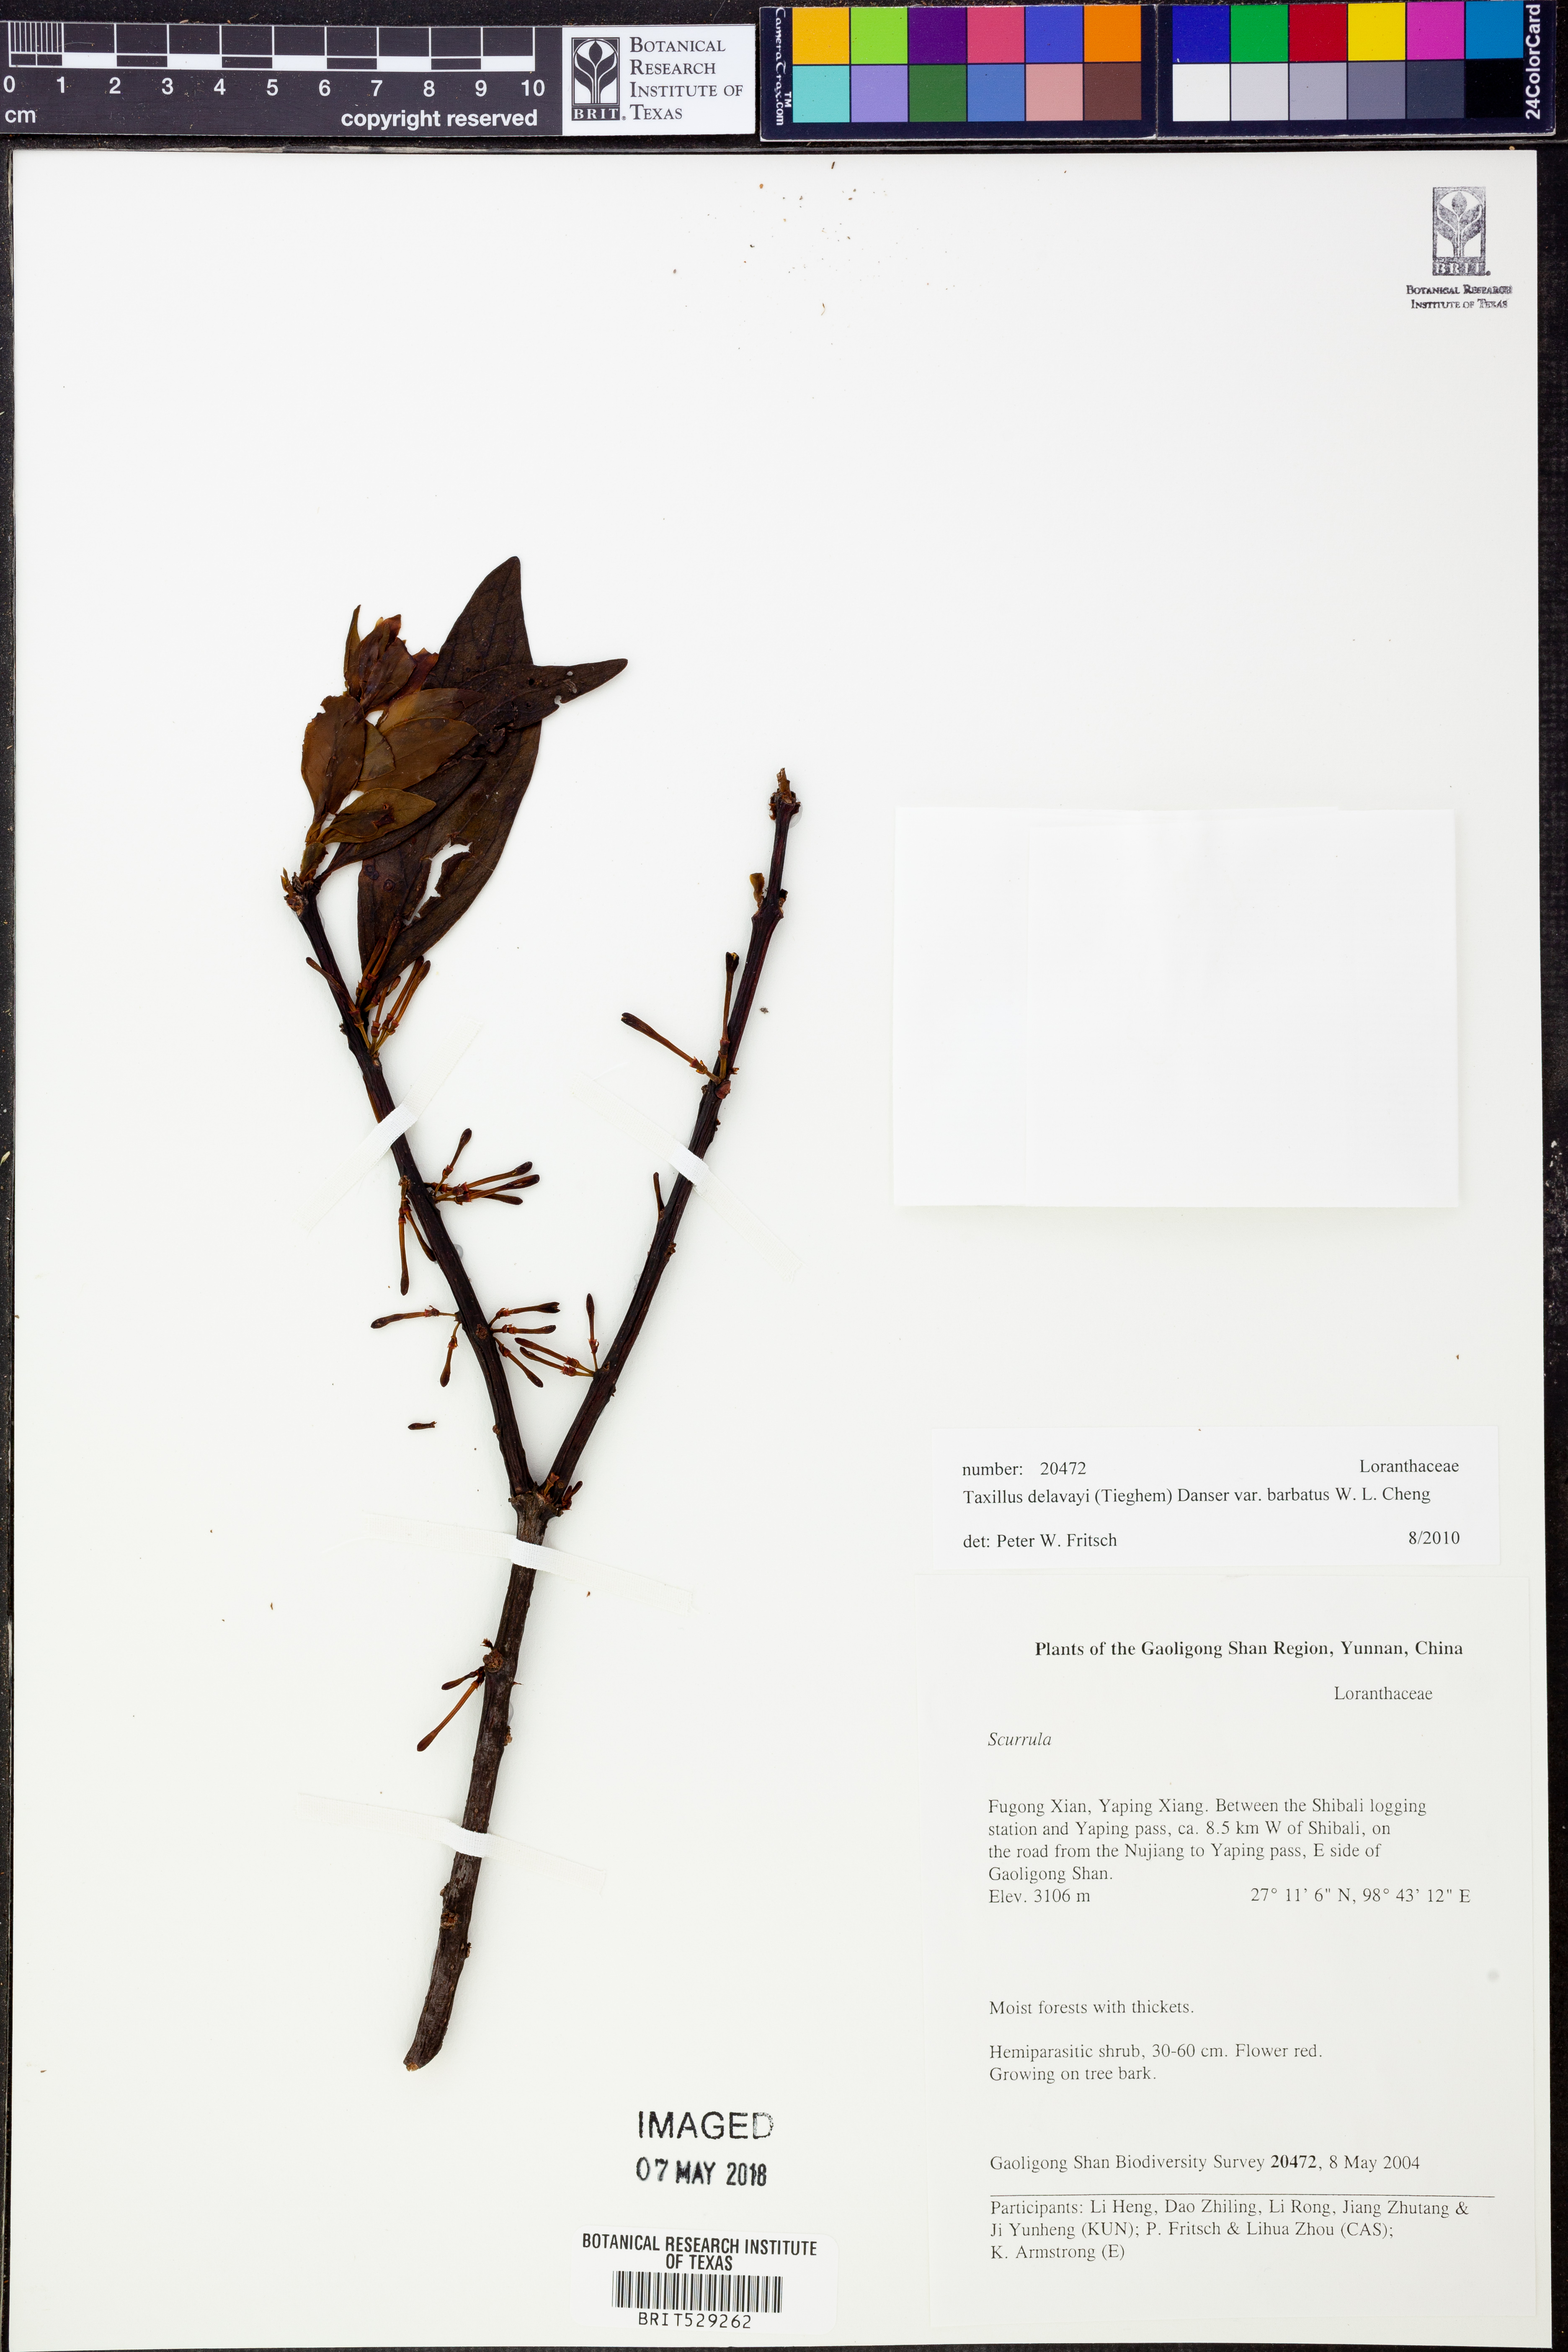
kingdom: Plantae
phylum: Tracheophyta
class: Magnoliopsida
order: Santalales
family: Loranthaceae
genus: Taxillus
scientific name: Taxillus delavayi
